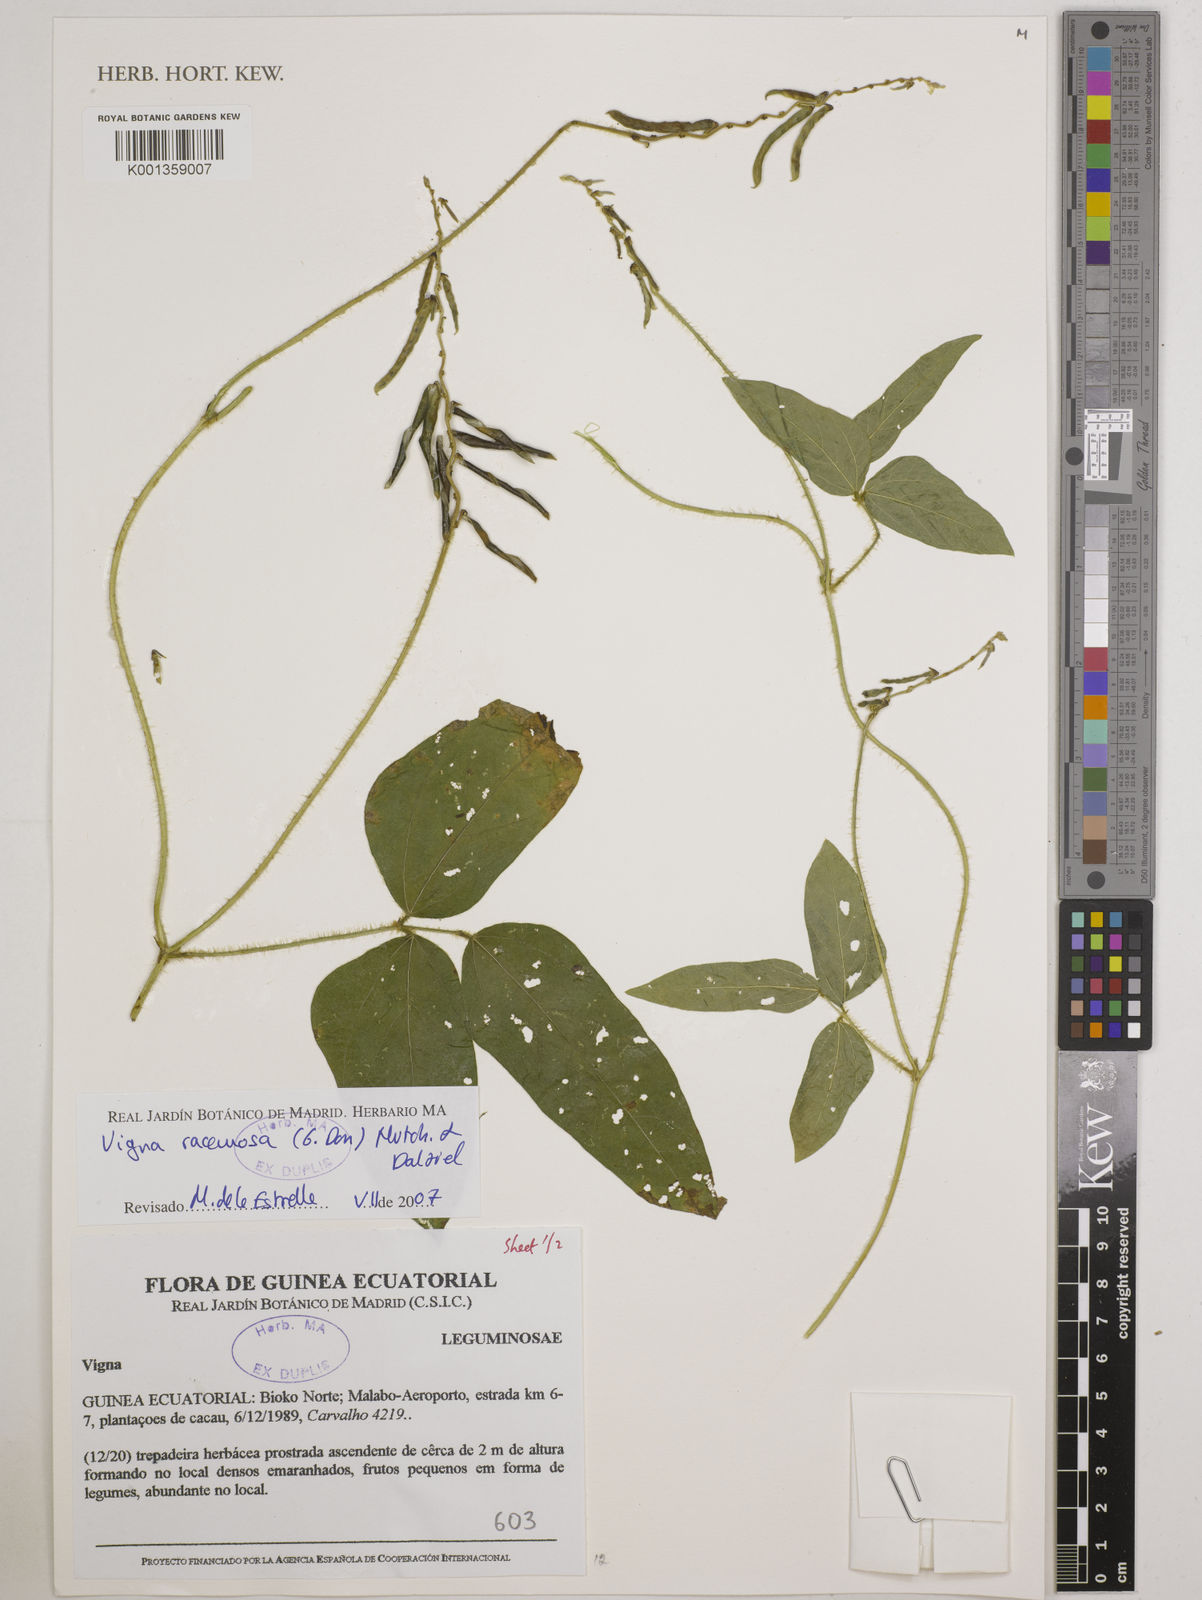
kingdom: Plantae
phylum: Tracheophyta
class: Magnoliopsida
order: Fabales
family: Fabaceae
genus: Vigna
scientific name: Vigna racemosa
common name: Beans not eaten
